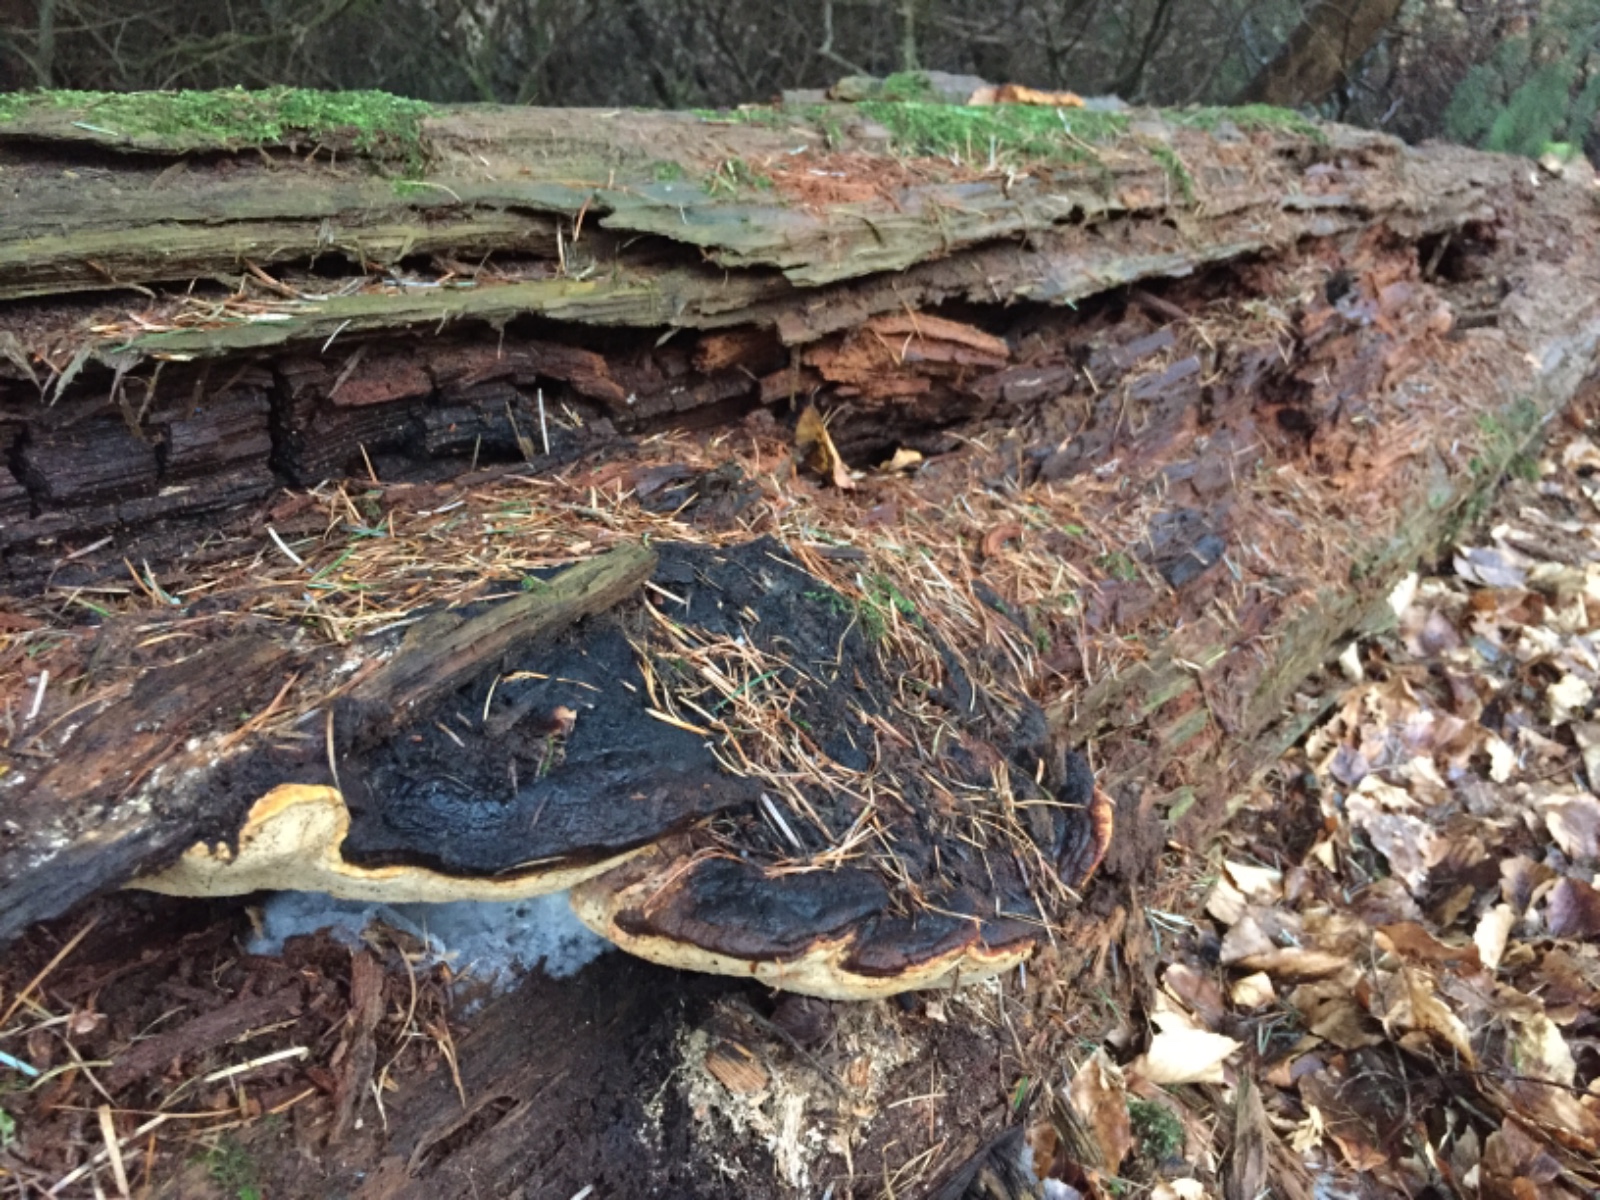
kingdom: Fungi
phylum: Basidiomycota
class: Agaricomycetes
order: Polyporales
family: Ischnodermataceae
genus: Ischnoderma
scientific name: Ischnoderma benzoinum
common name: gran-tjæreporesvamp
